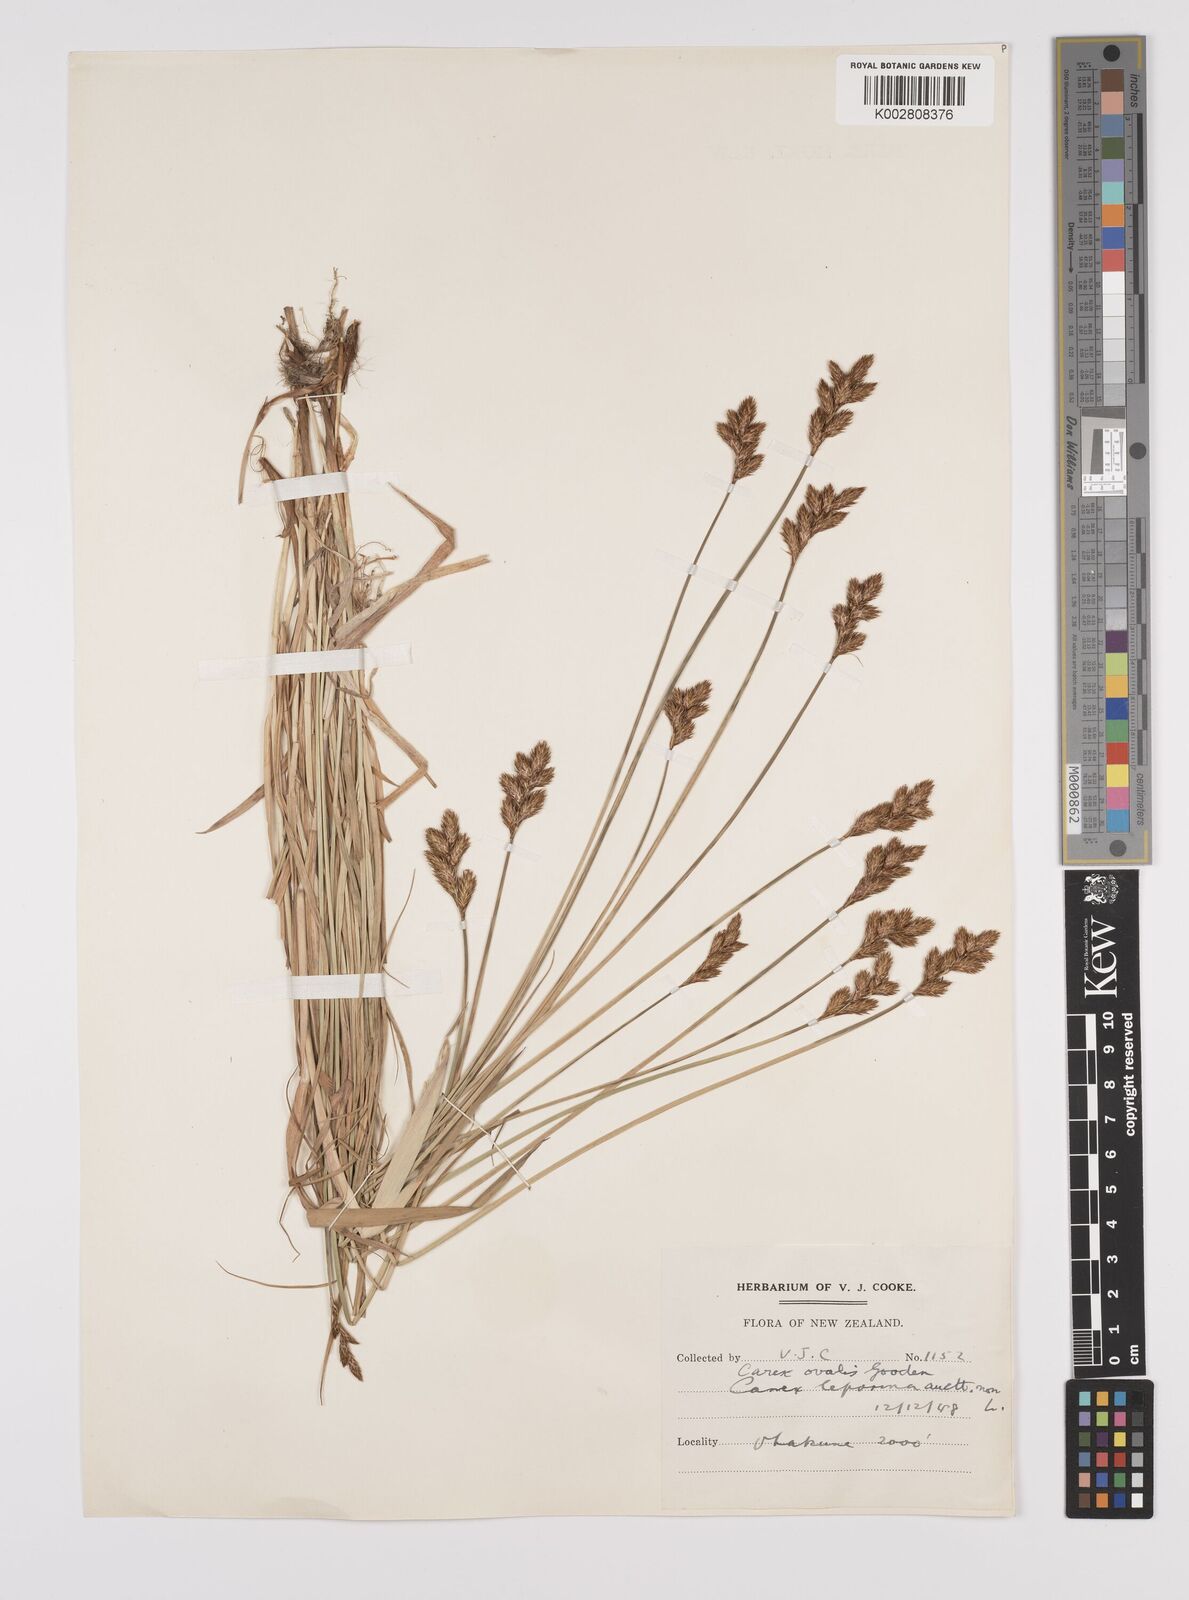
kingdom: Plantae
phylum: Tracheophyta
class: Liliopsida
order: Poales
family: Cyperaceae
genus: Carex
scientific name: Carex leporina
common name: Oval sedge
